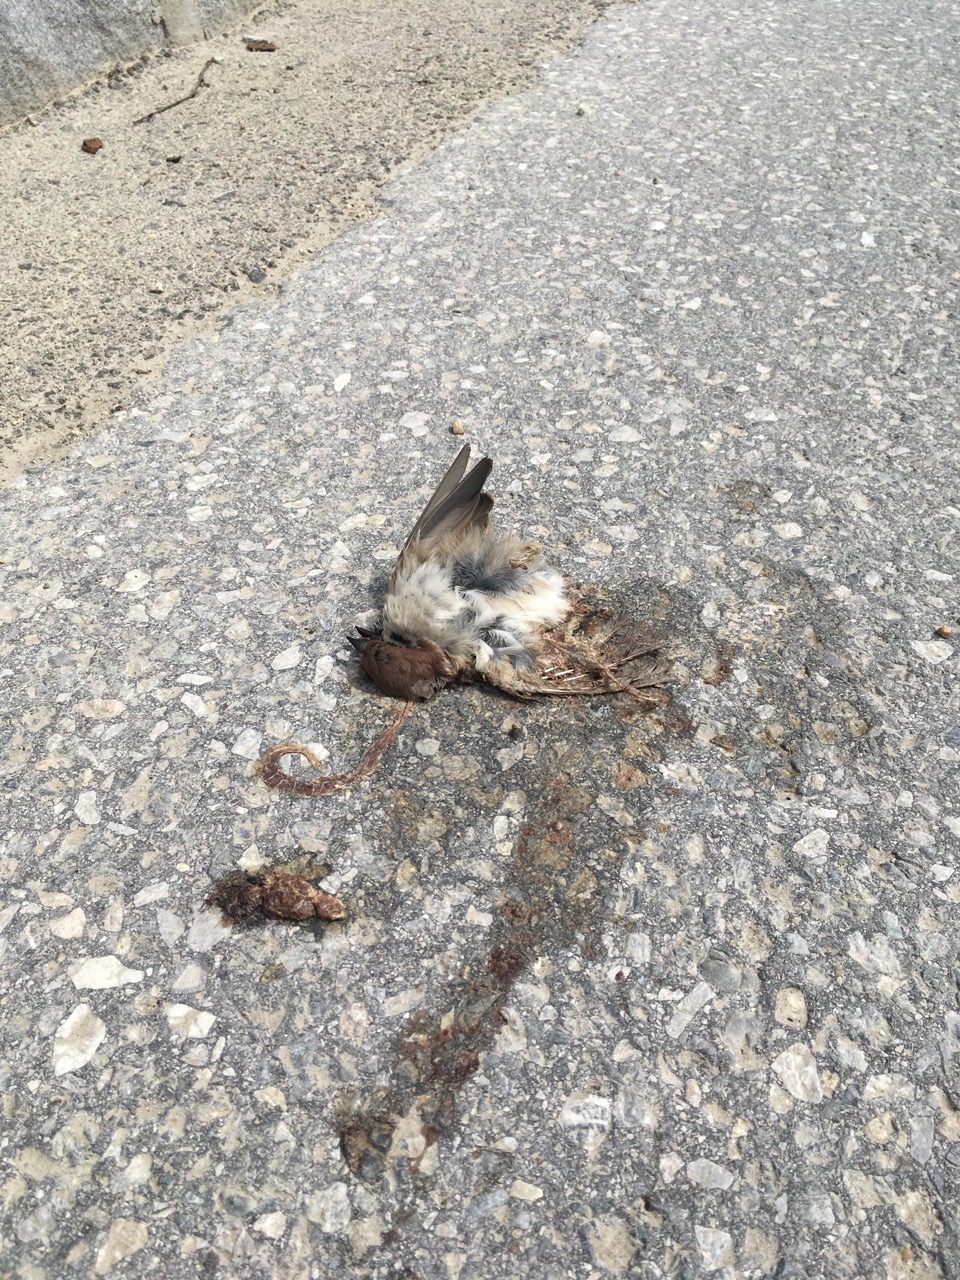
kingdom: Animalia
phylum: Chordata
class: Aves
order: Passeriformes
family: Passeridae
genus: Passer
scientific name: Passer montanus
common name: Eurasian tree sparrow
